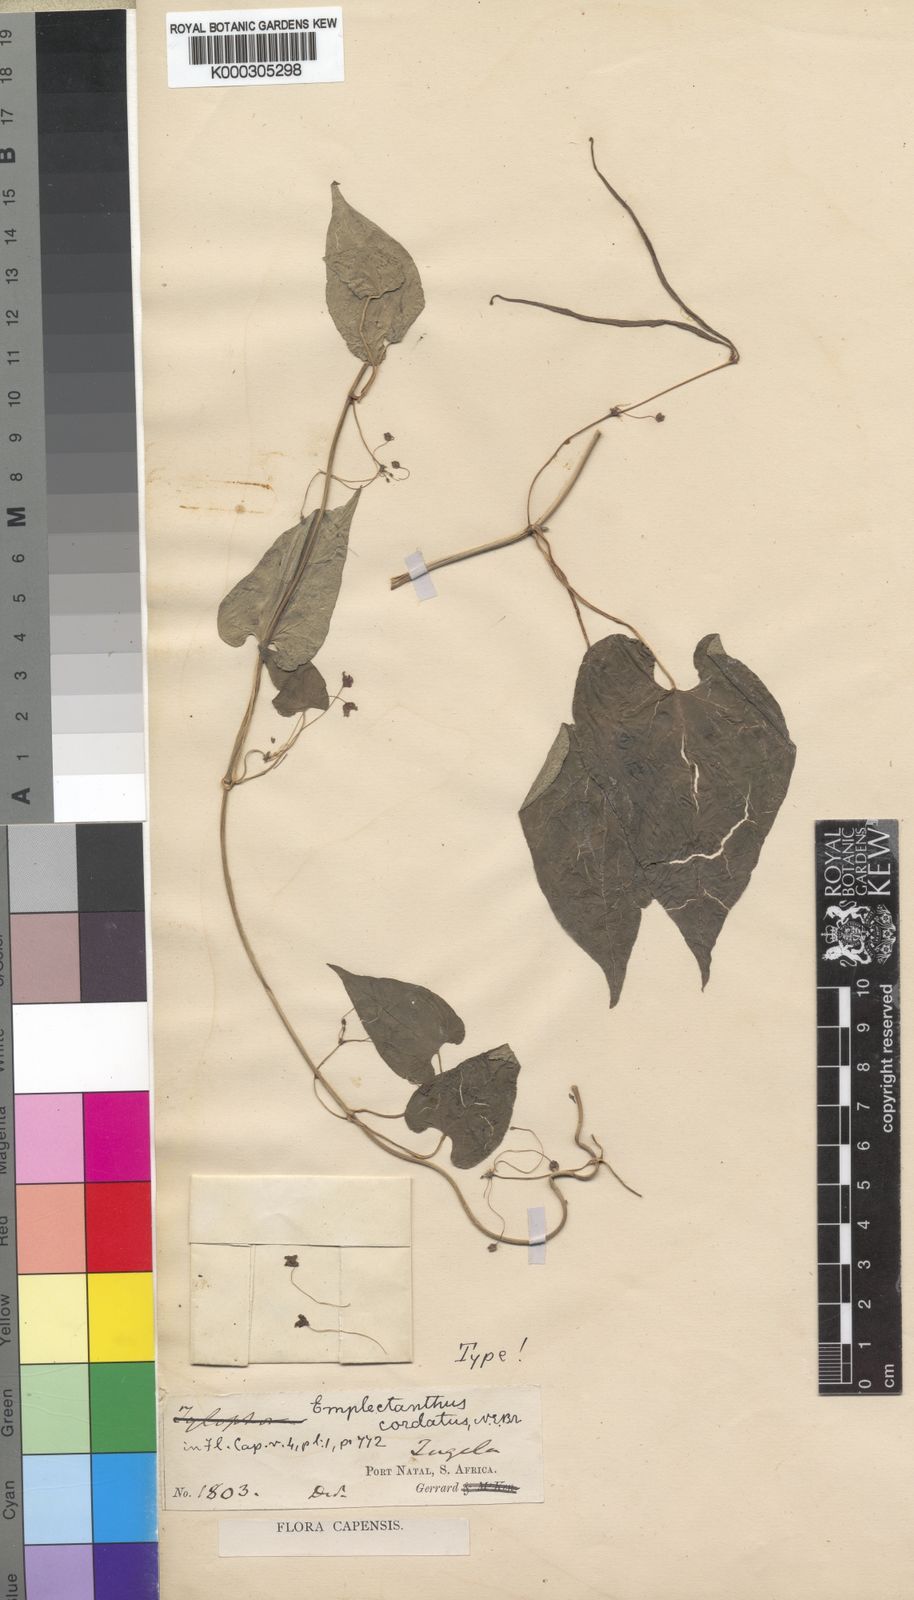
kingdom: Plantae
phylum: Tracheophyta
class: Magnoliopsida
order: Gentianales
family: Apocynaceae
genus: Emplectanthus
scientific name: Emplectanthus cordatus
